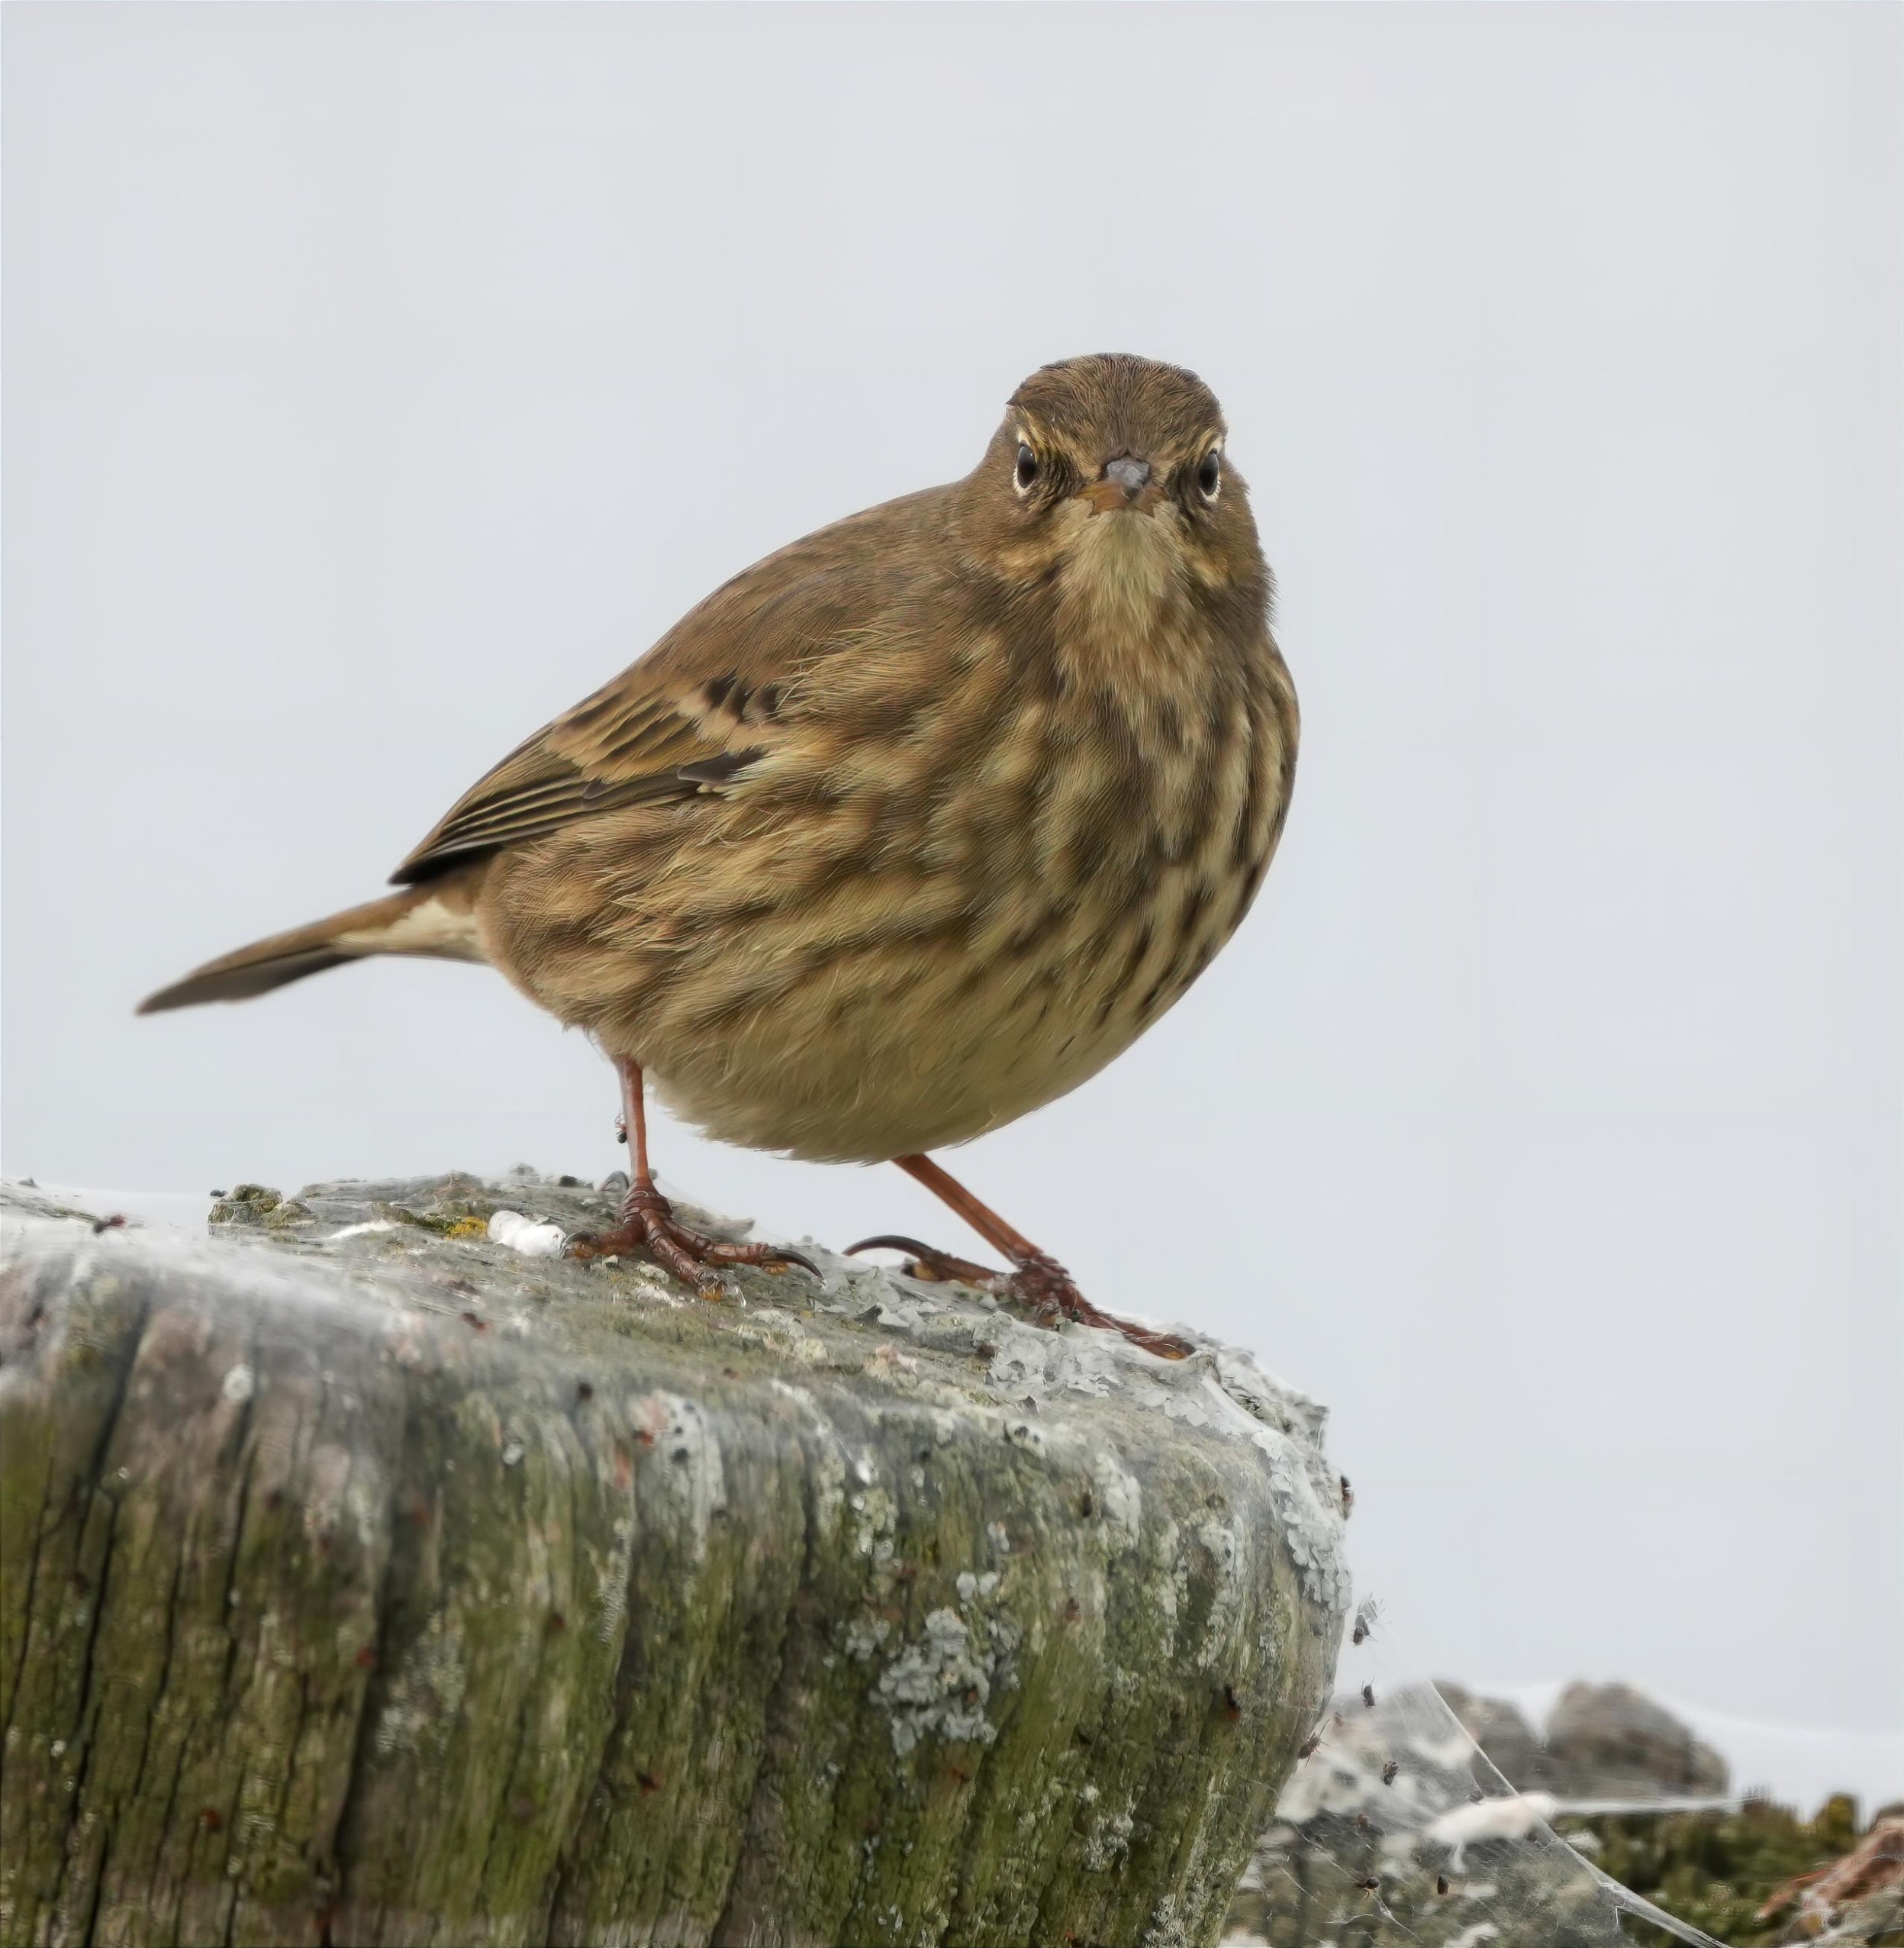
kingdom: Animalia
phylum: Chordata
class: Aves
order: Passeriformes
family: Motacillidae
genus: Anthus
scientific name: Anthus petrosus
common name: Skærpiber
